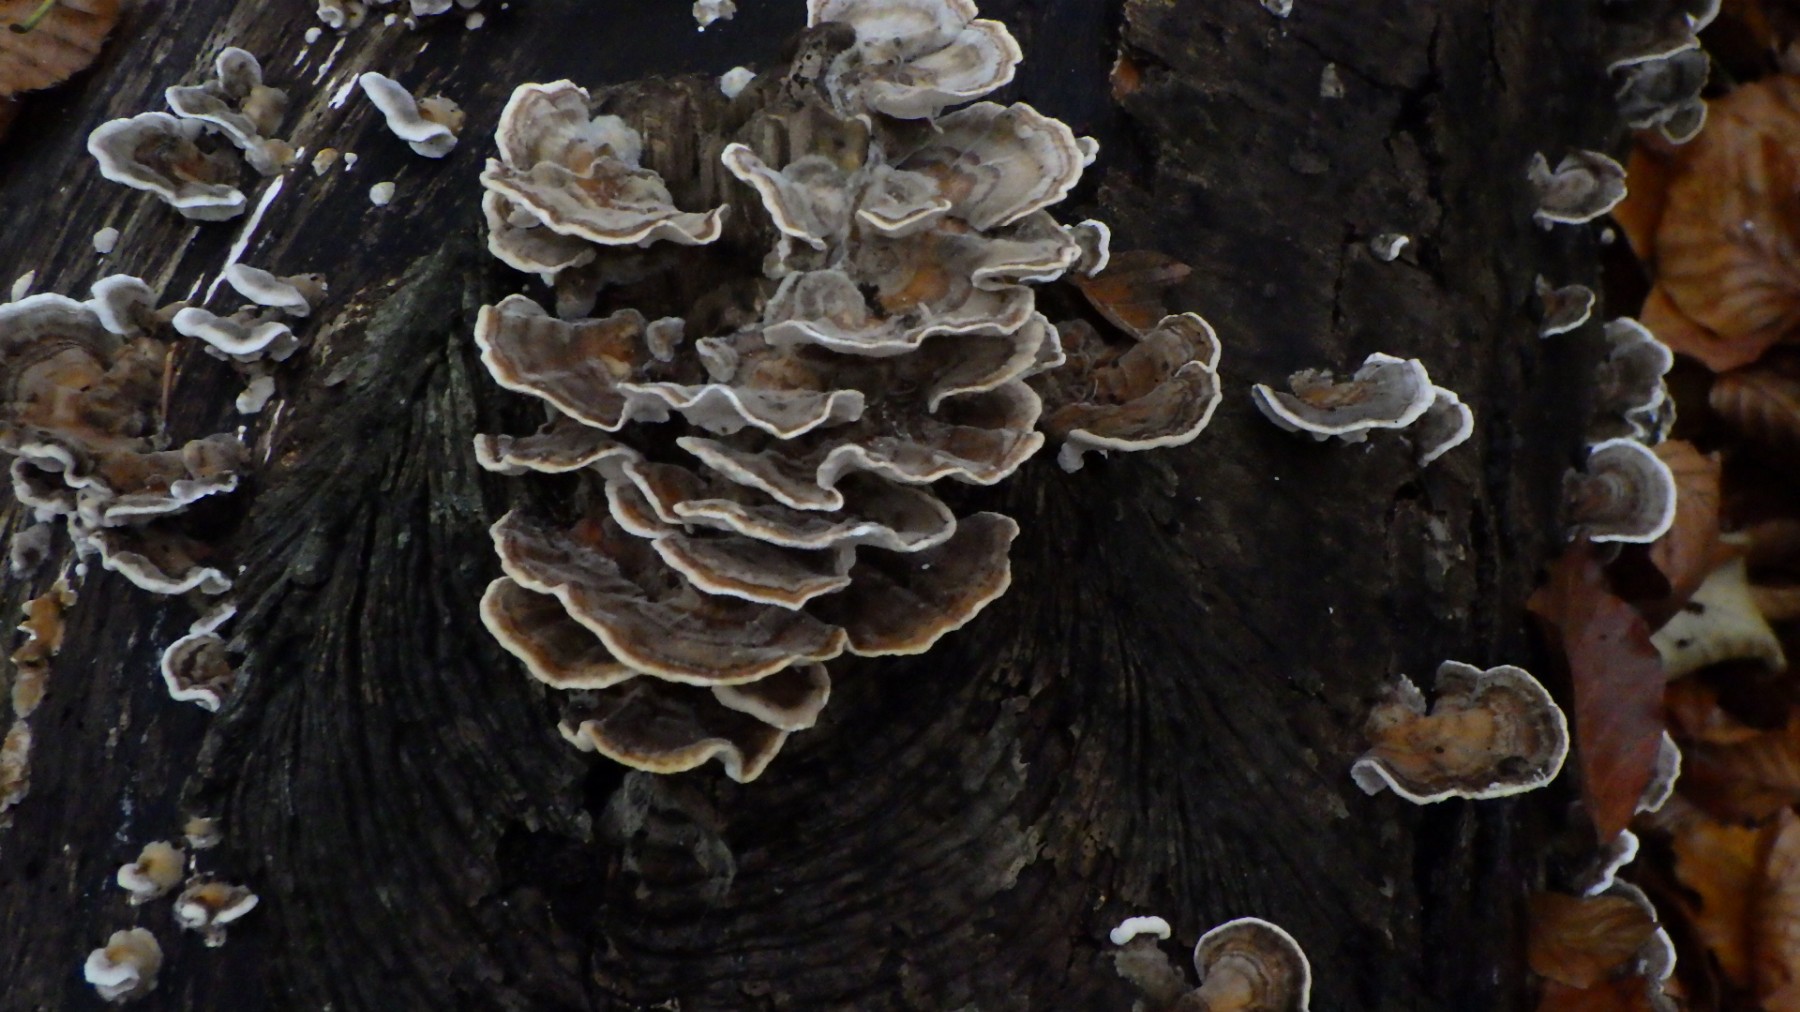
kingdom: Fungi
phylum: Basidiomycota
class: Agaricomycetes
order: Polyporales
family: Polyporaceae
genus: Trametes
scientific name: Trametes versicolor
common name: broget læderporesvamp
